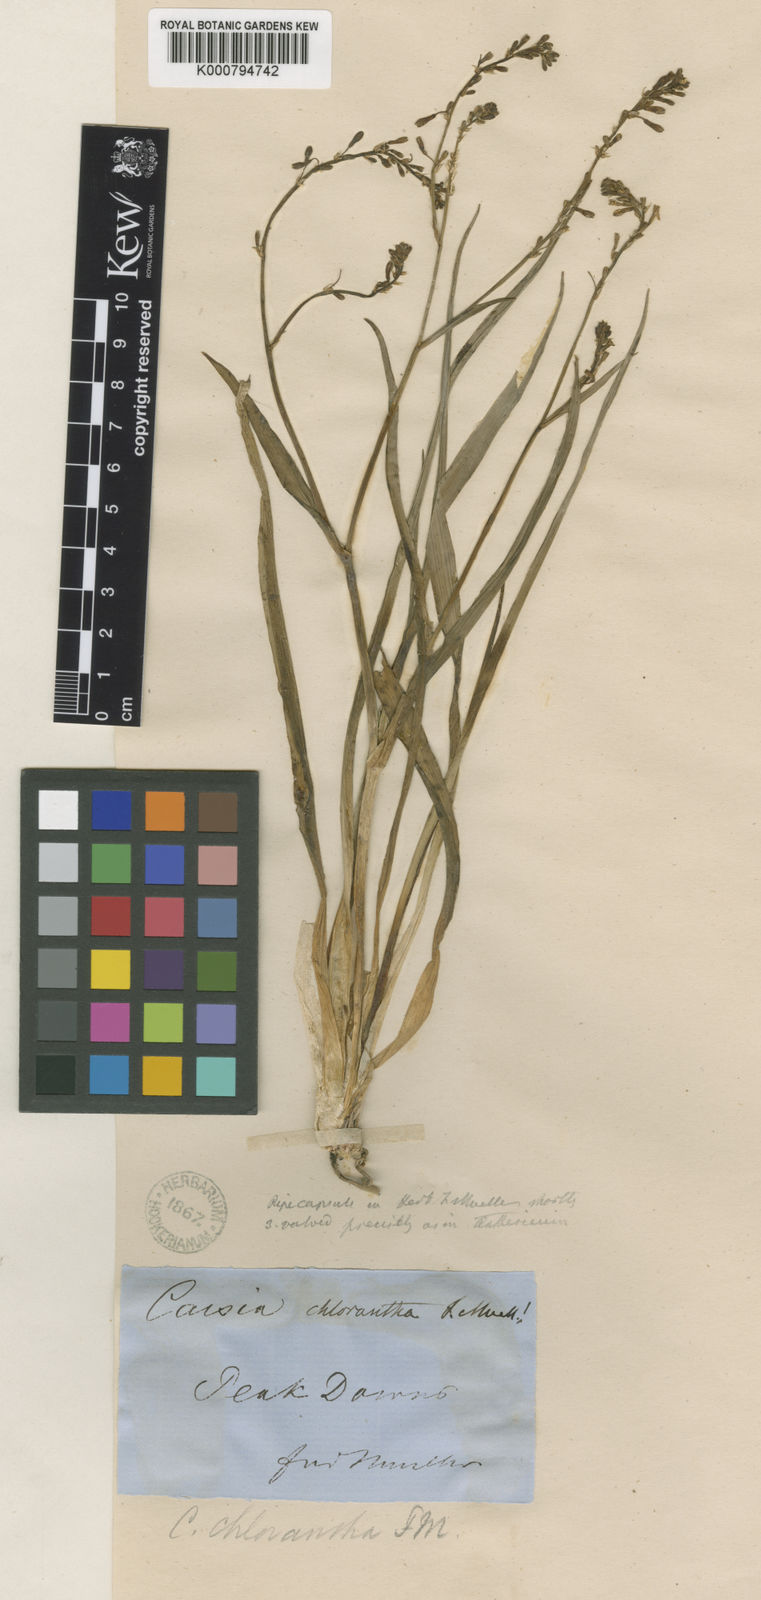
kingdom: Plantae
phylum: Tracheophyta
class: Liliopsida
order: Asparagales
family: Asphodelaceae
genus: Caesia
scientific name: Caesia chlorantha
